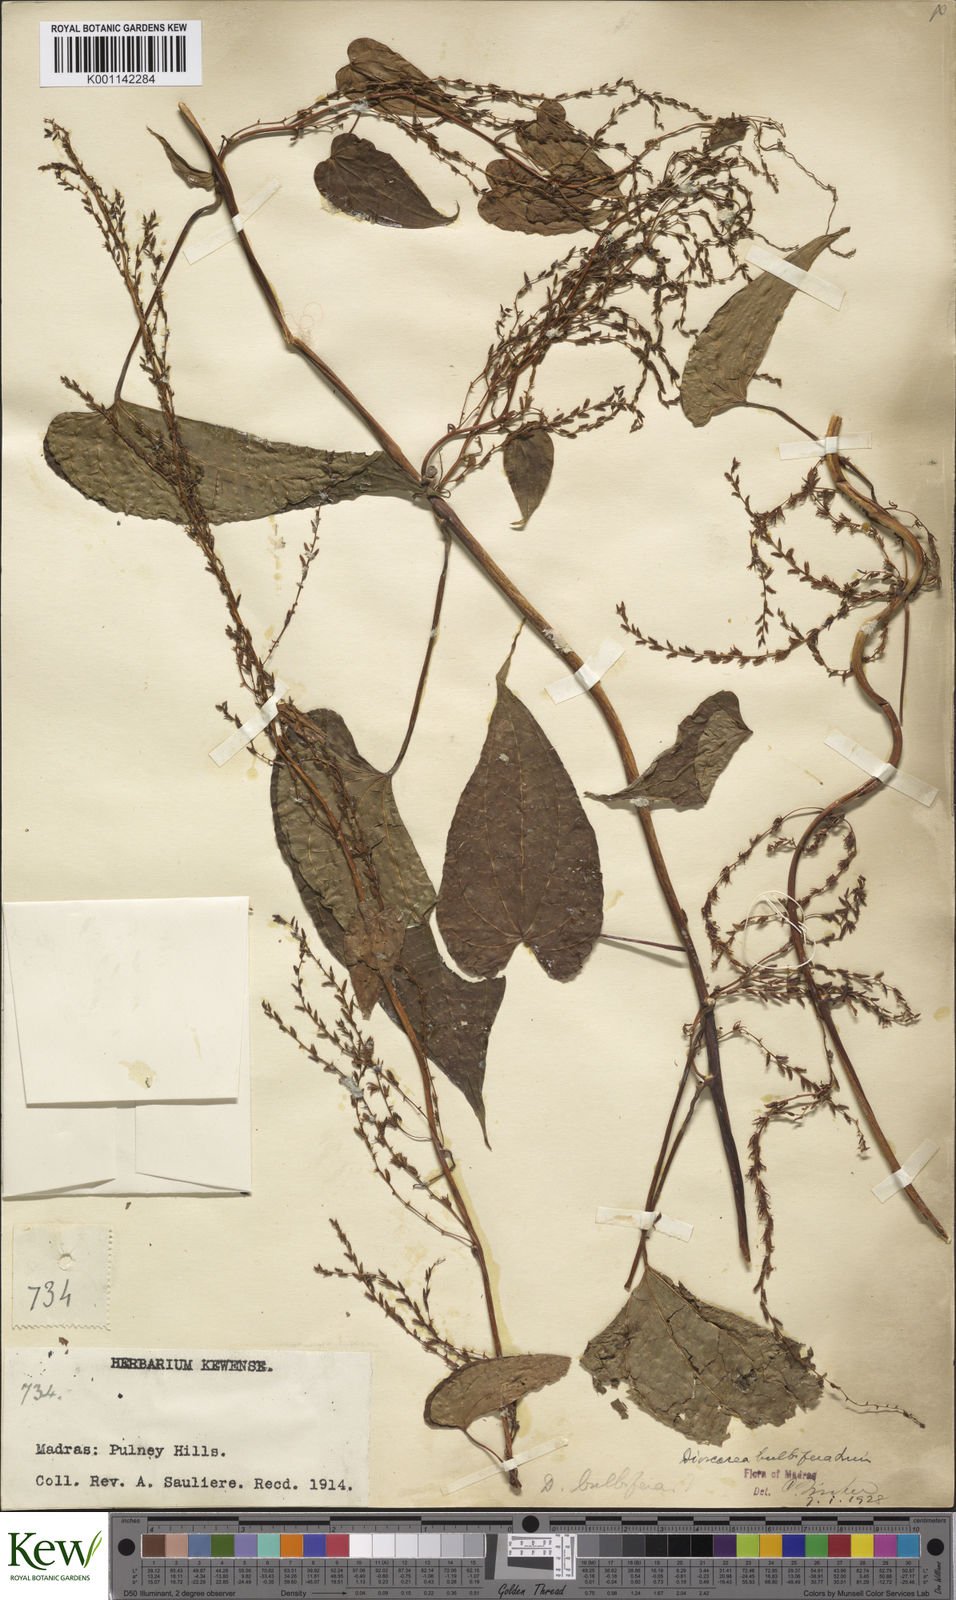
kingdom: Plantae
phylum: Tracheophyta
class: Liliopsida
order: Dioscoreales
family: Dioscoreaceae
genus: Dioscorea
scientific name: Dioscorea
